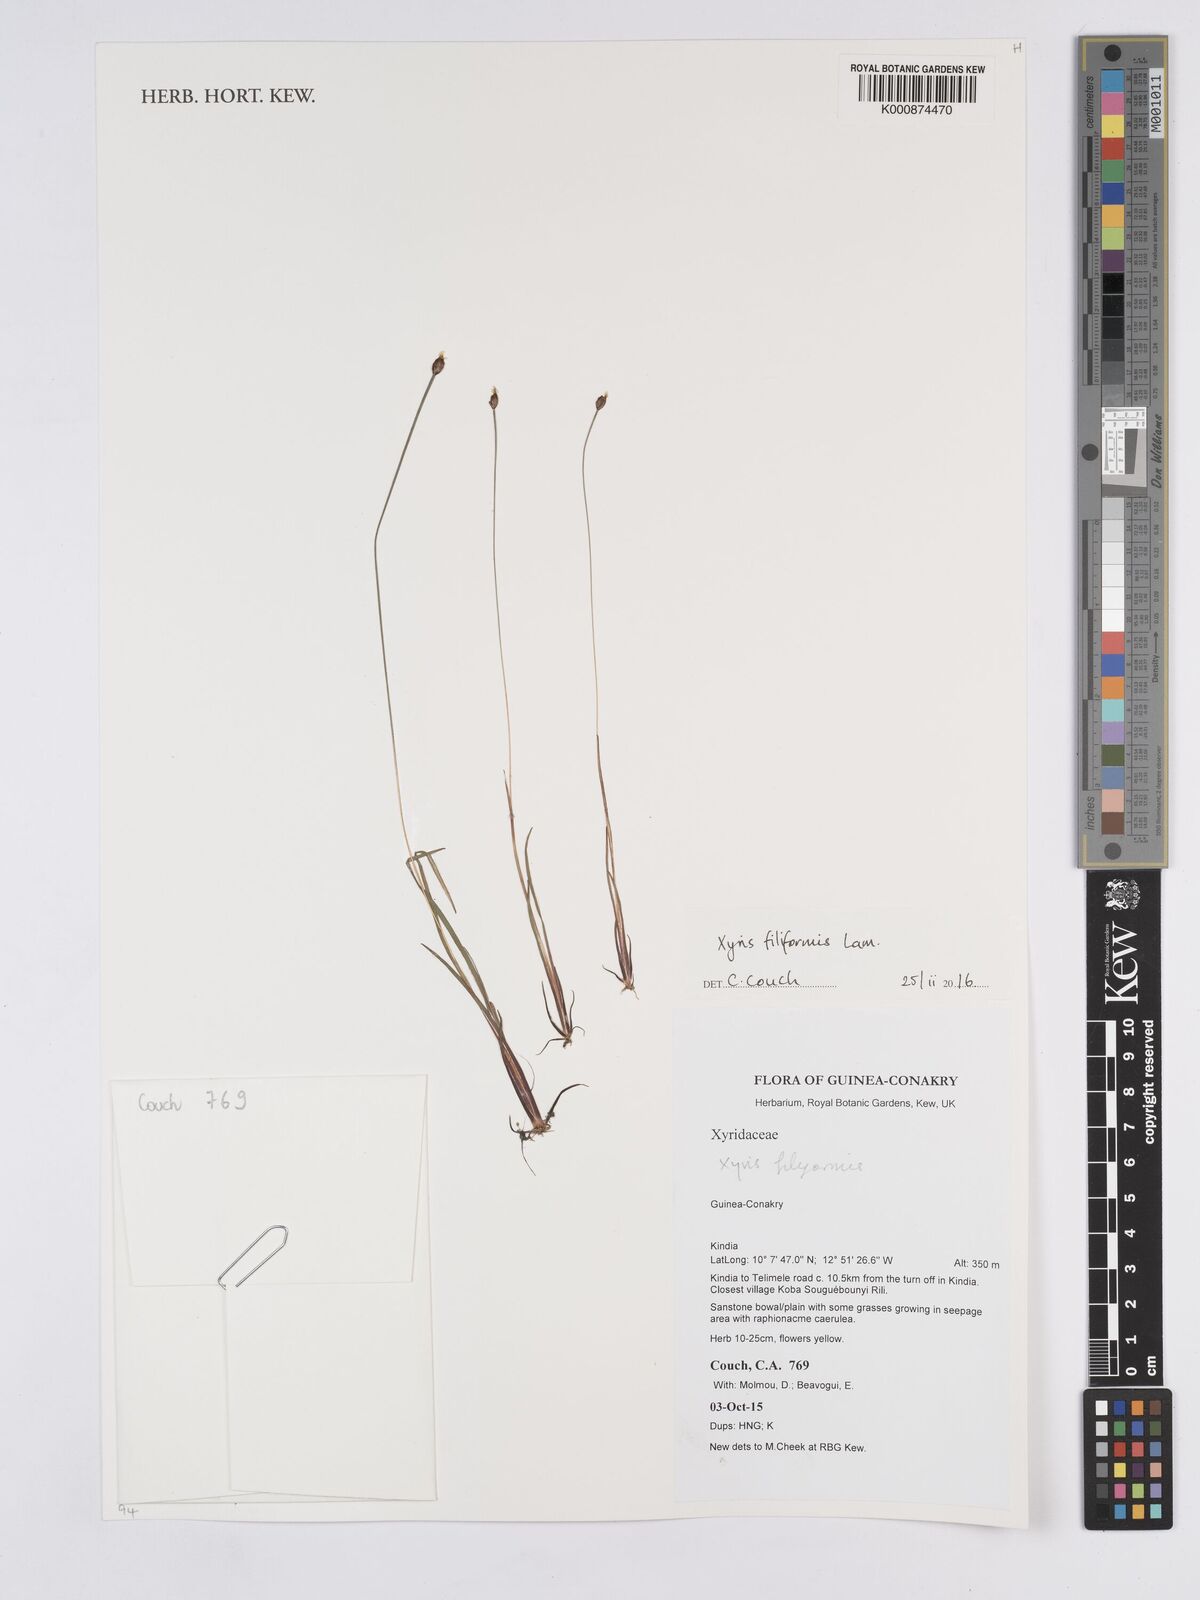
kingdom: Plantae
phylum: Tracheophyta
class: Liliopsida
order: Poales
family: Xyridaceae
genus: Xyris
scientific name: Xyris filiformis
